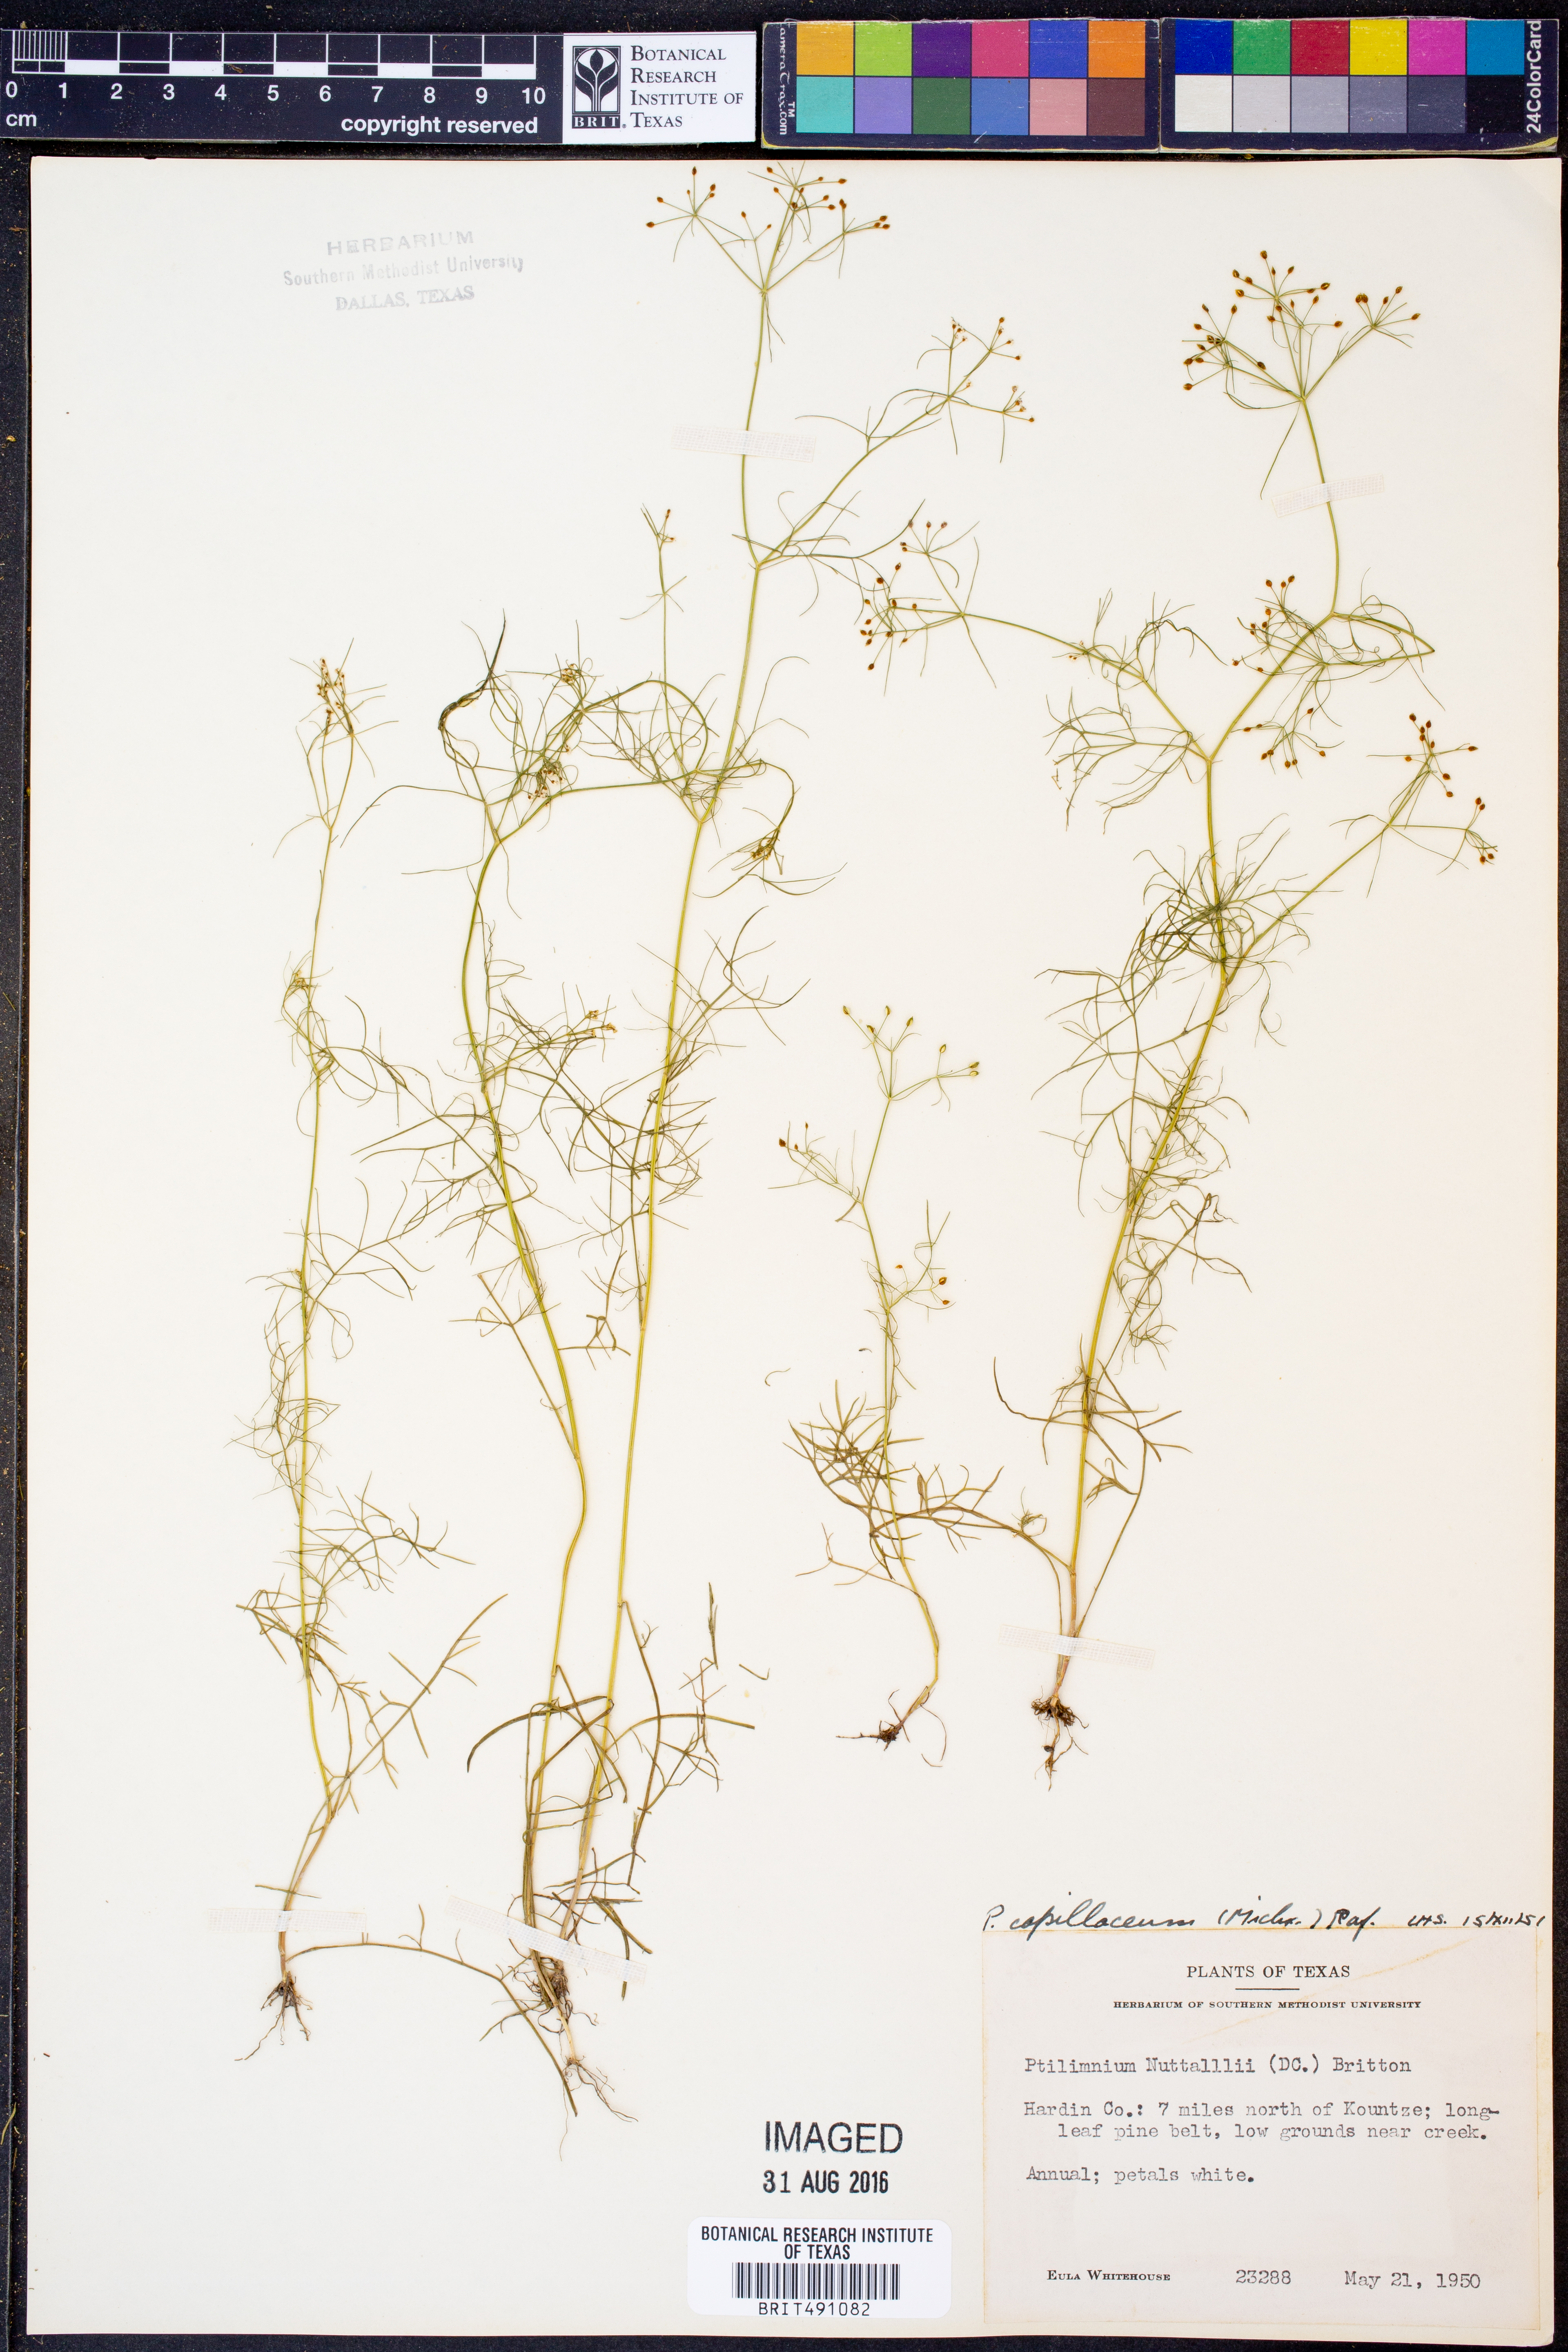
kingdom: Plantae
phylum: Tracheophyta
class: Magnoliopsida
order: Apiales
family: Apiaceae
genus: Ptilimnium
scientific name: Ptilimnium capillaceum
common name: Herbwilliam
